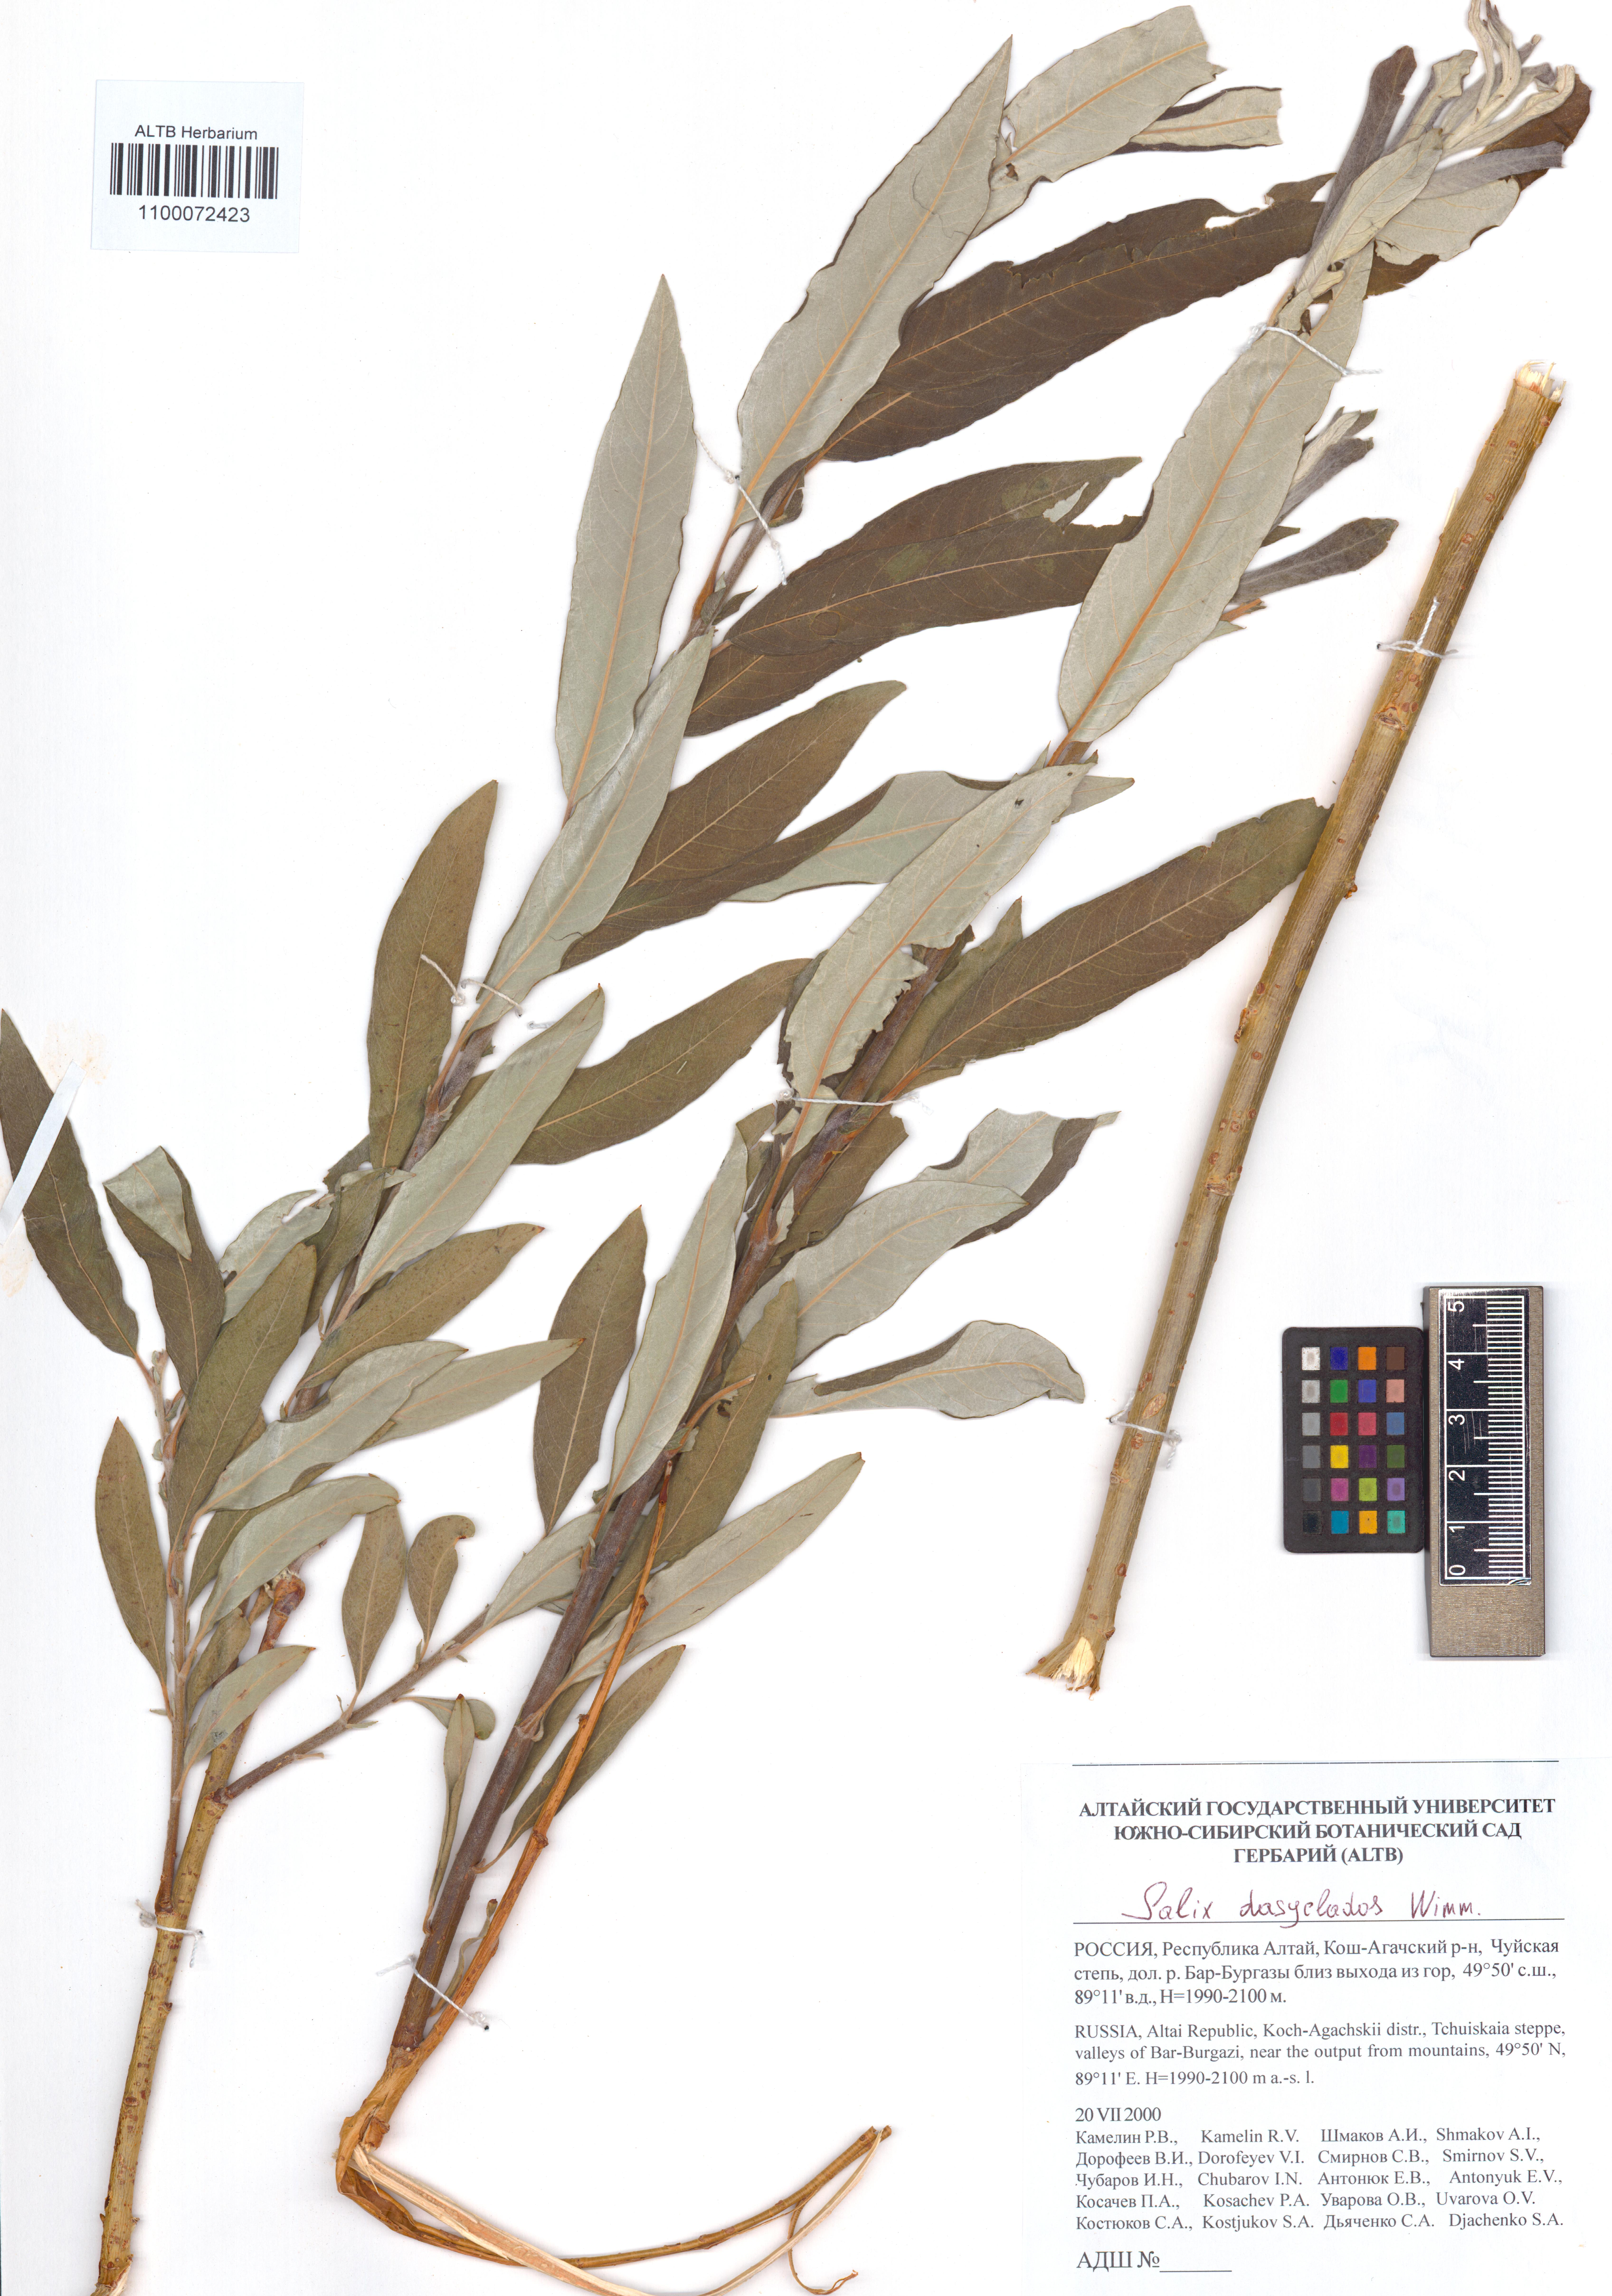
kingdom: Plantae
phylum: Tracheophyta
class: Magnoliopsida
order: Malpighiales
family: Salicaceae
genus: Salix
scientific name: Salix gmelinii
